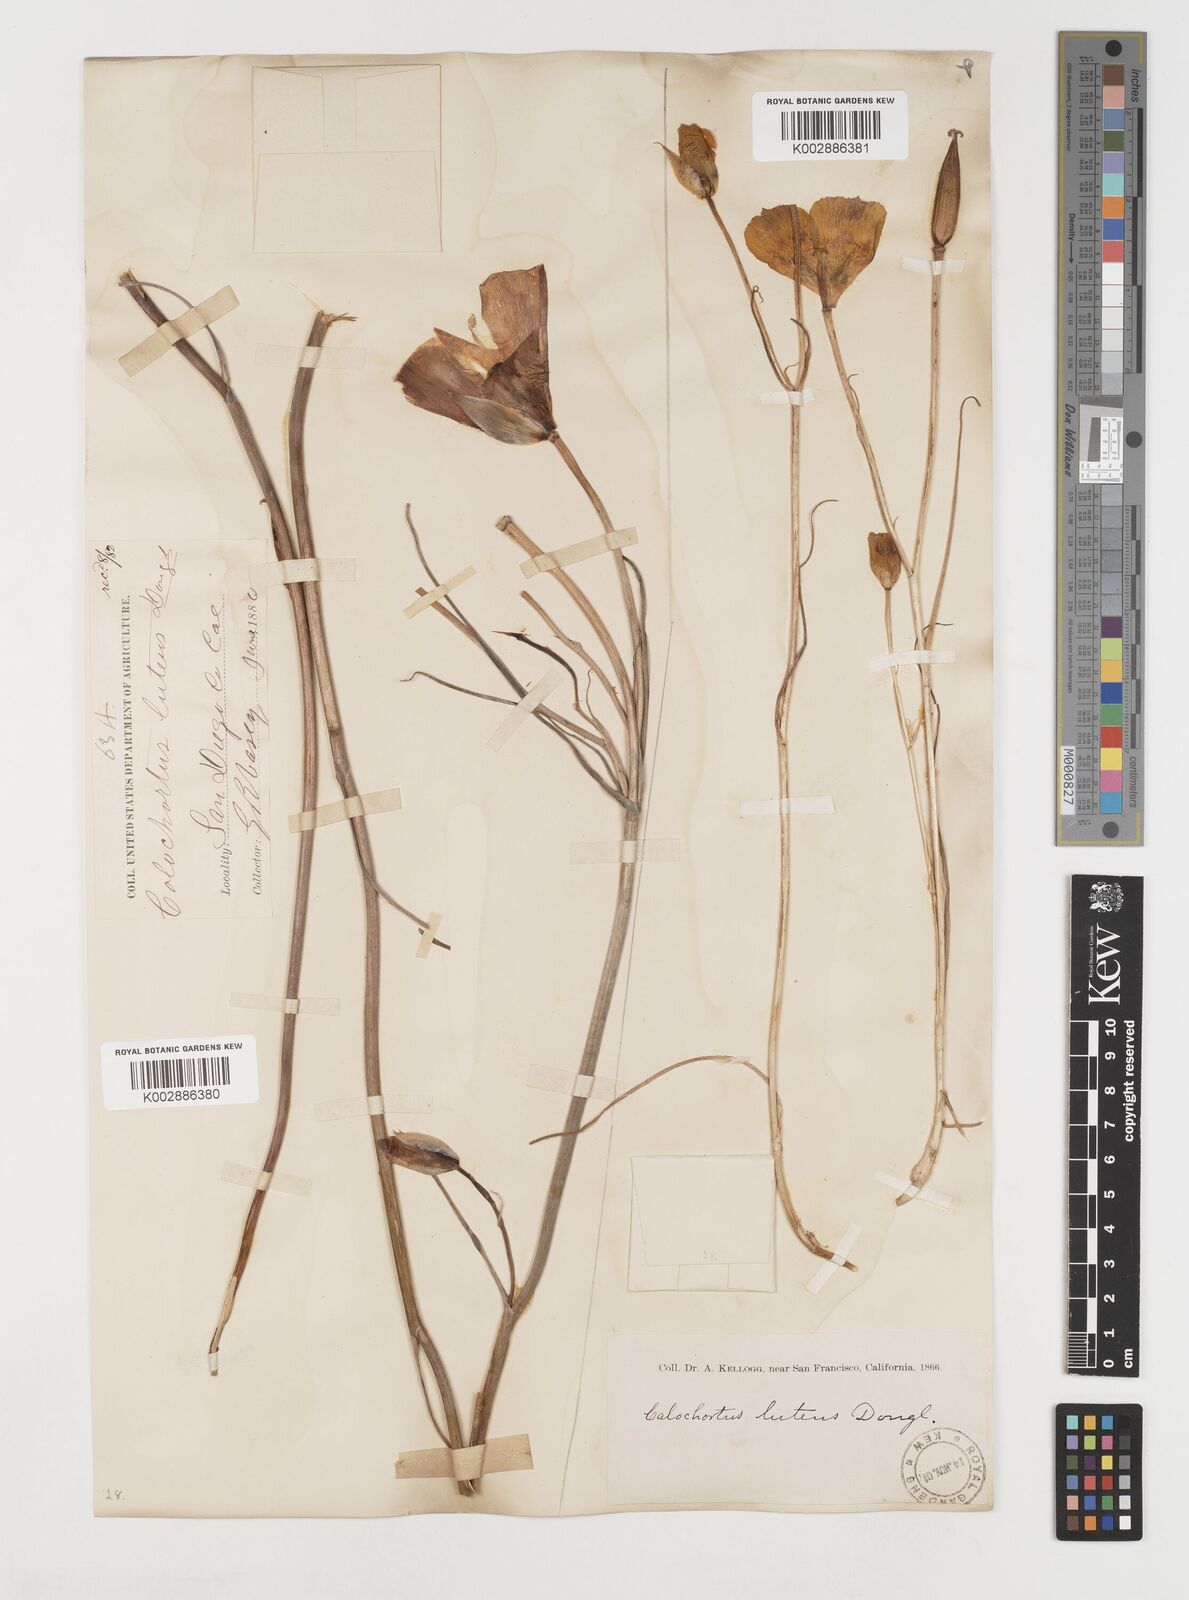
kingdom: Plantae
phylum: Tracheophyta
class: Liliopsida
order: Liliales
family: Liliaceae
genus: Calochortus
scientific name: Calochortus nuttallii
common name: Sego-lily
